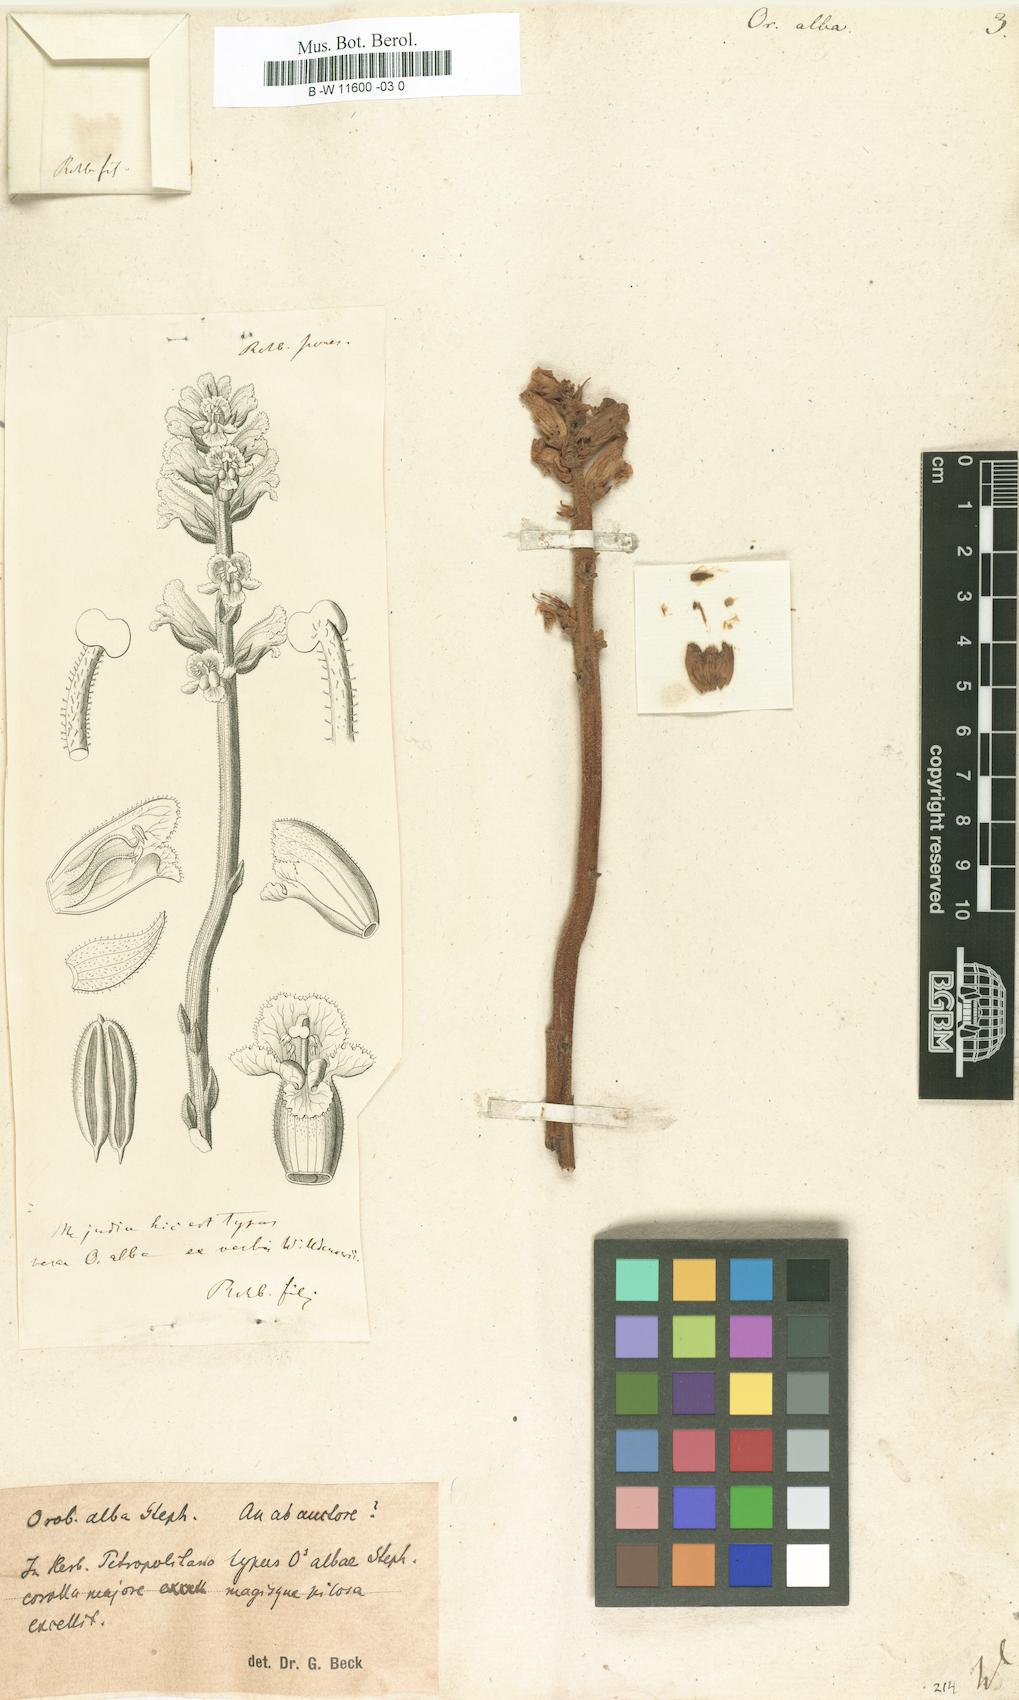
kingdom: Plantae
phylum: Tracheophyta
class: Magnoliopsida
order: Lamiales
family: Orobanchaceae
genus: Orobanche
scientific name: Orobanche alba
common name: Thyme broomrape
